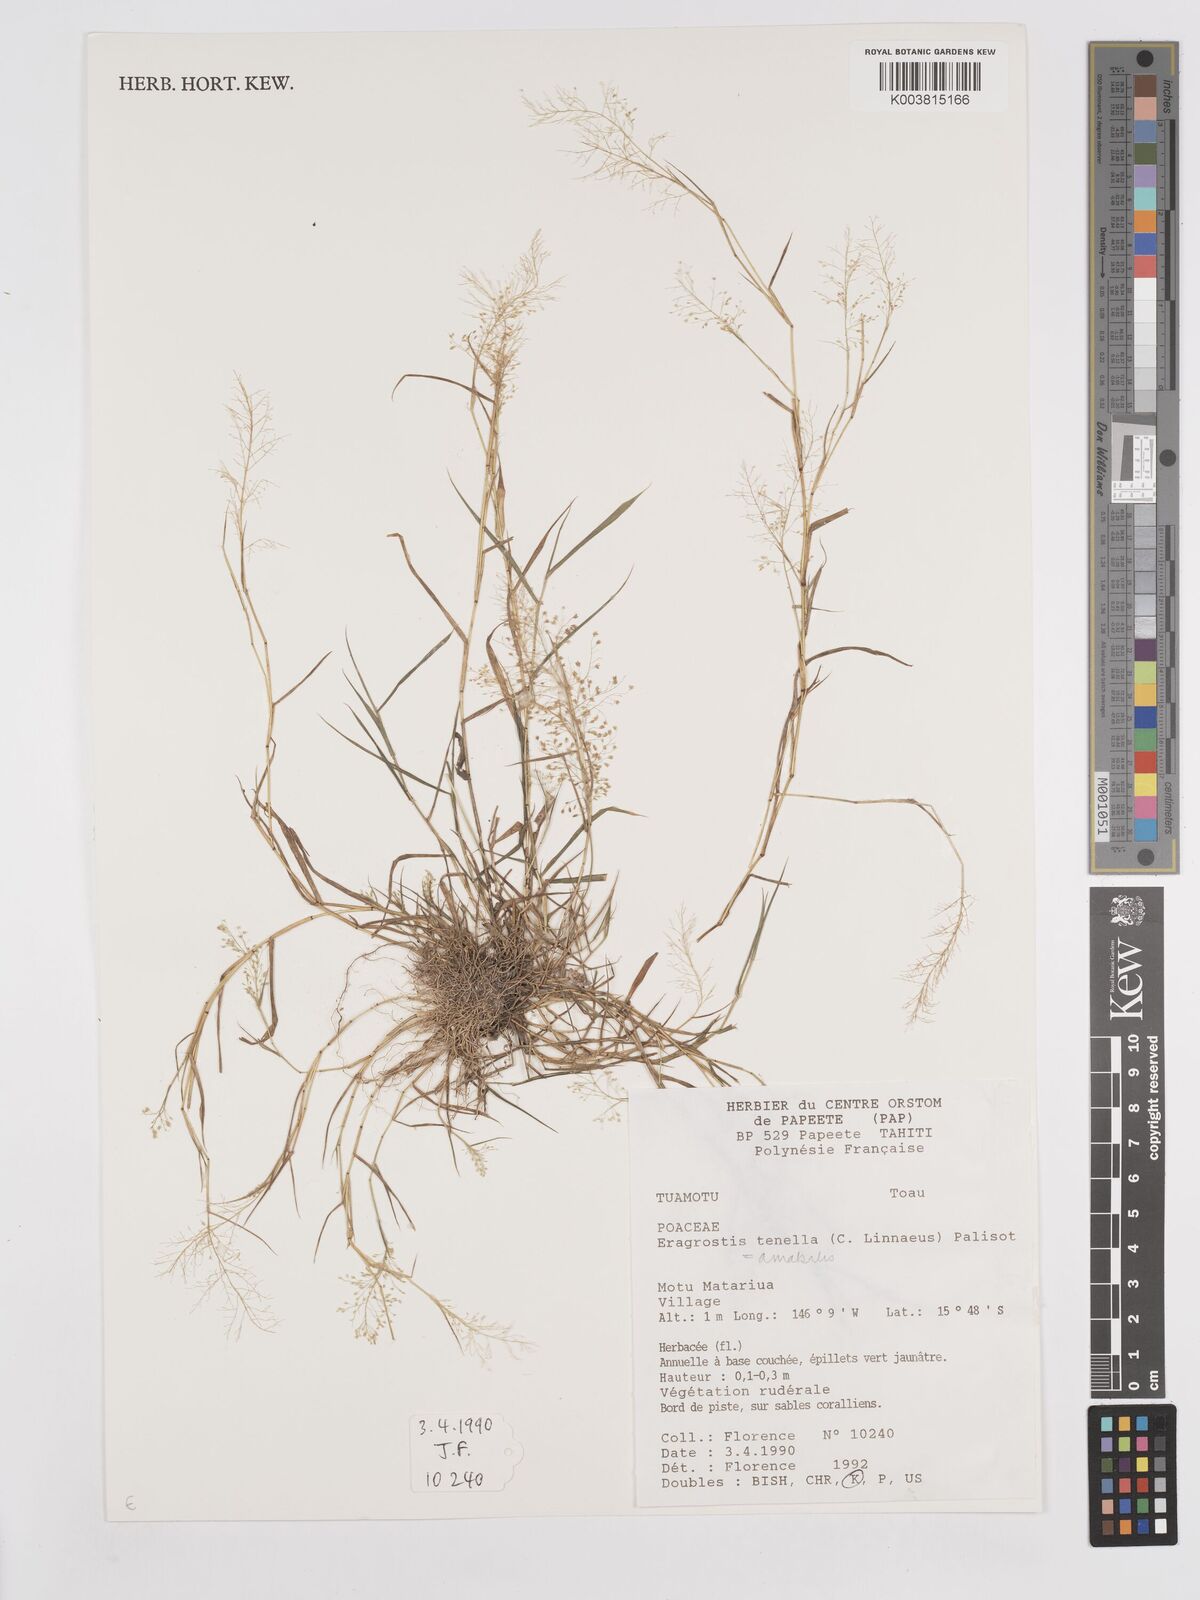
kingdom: Plantae
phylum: Tracheophyta
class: Liliopsida
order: Poales
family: Poaceae
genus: Eragrostis
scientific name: Eragrostis tenella
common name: Japanese lovegrass
